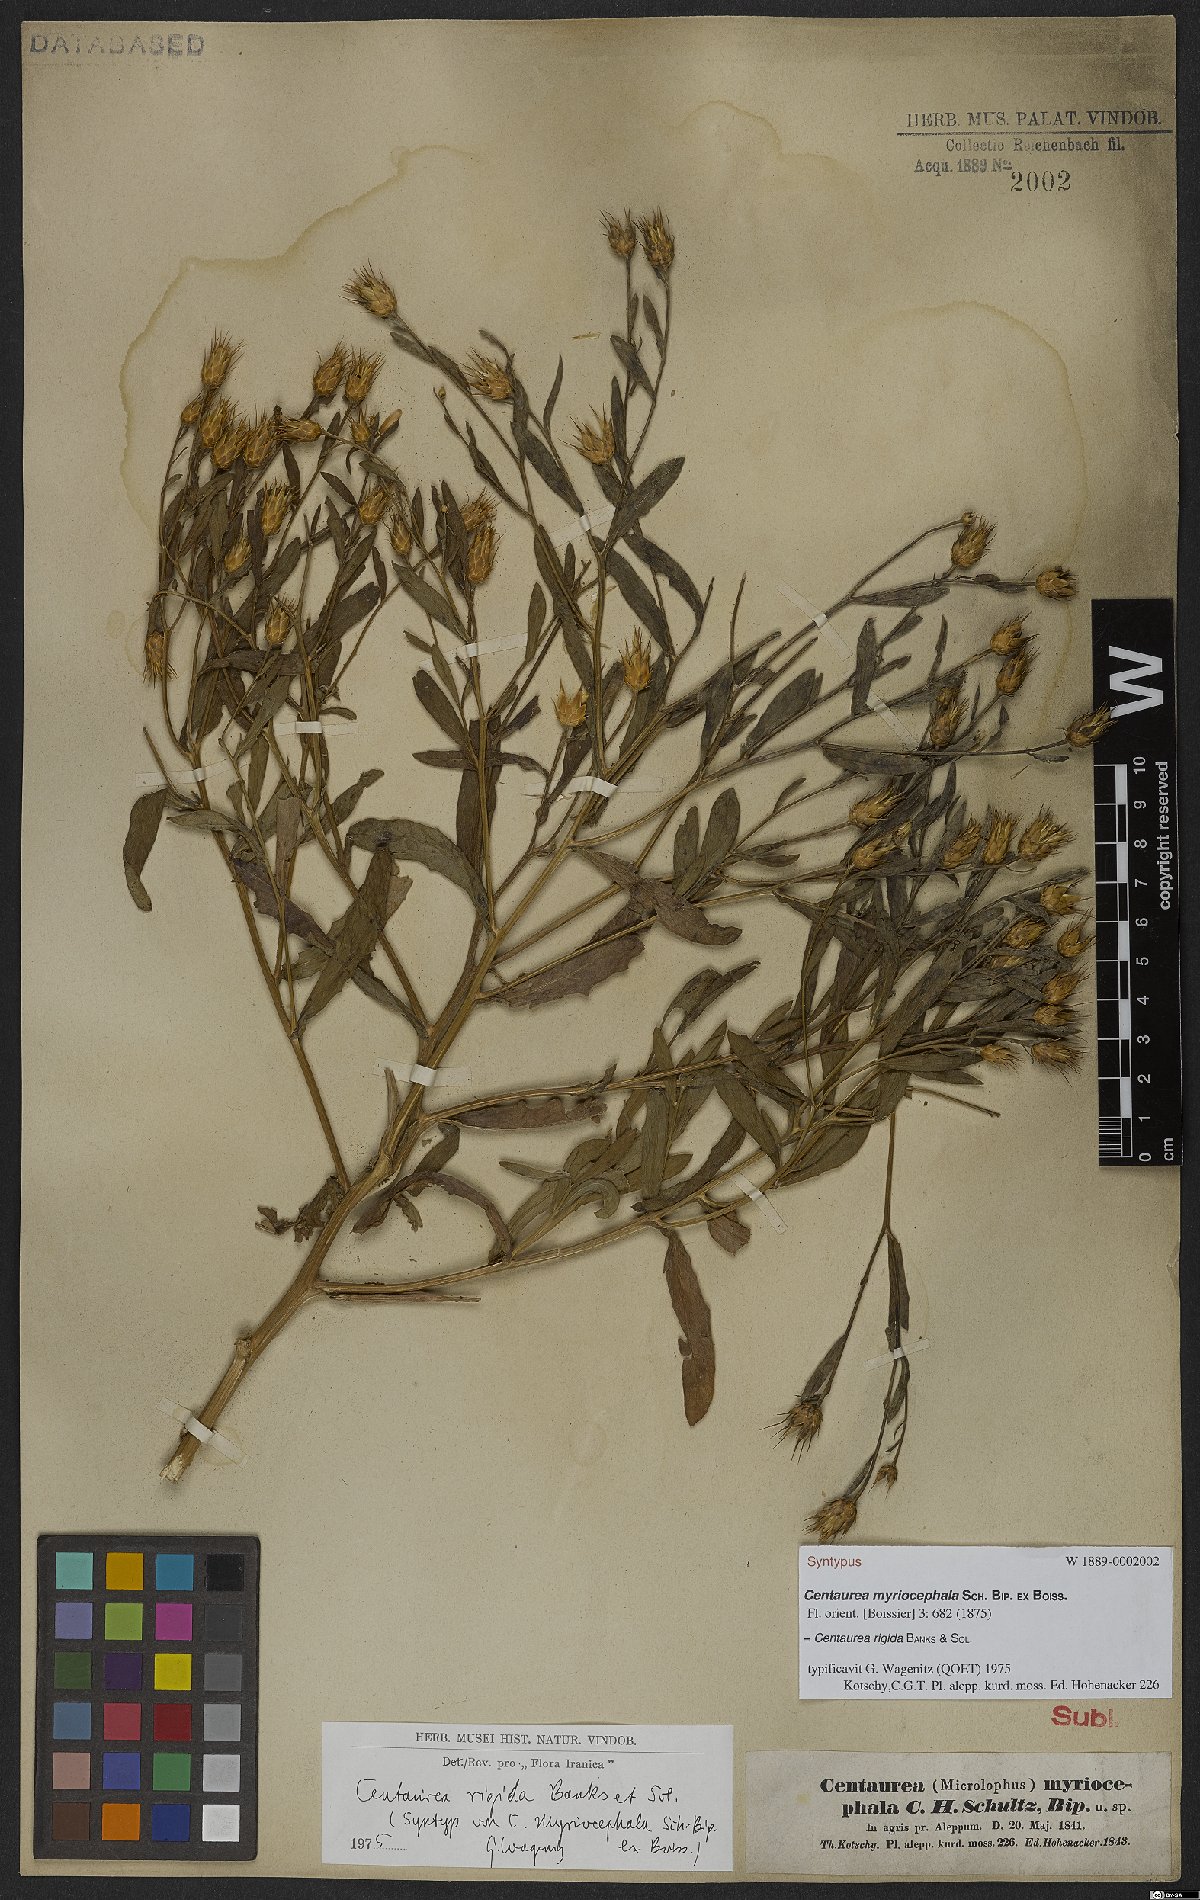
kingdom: Plantae
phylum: Tracheophyta
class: Magnoliopsida
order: Asterales
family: Asteraceae
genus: Centaurea
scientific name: Centaurea rigida
